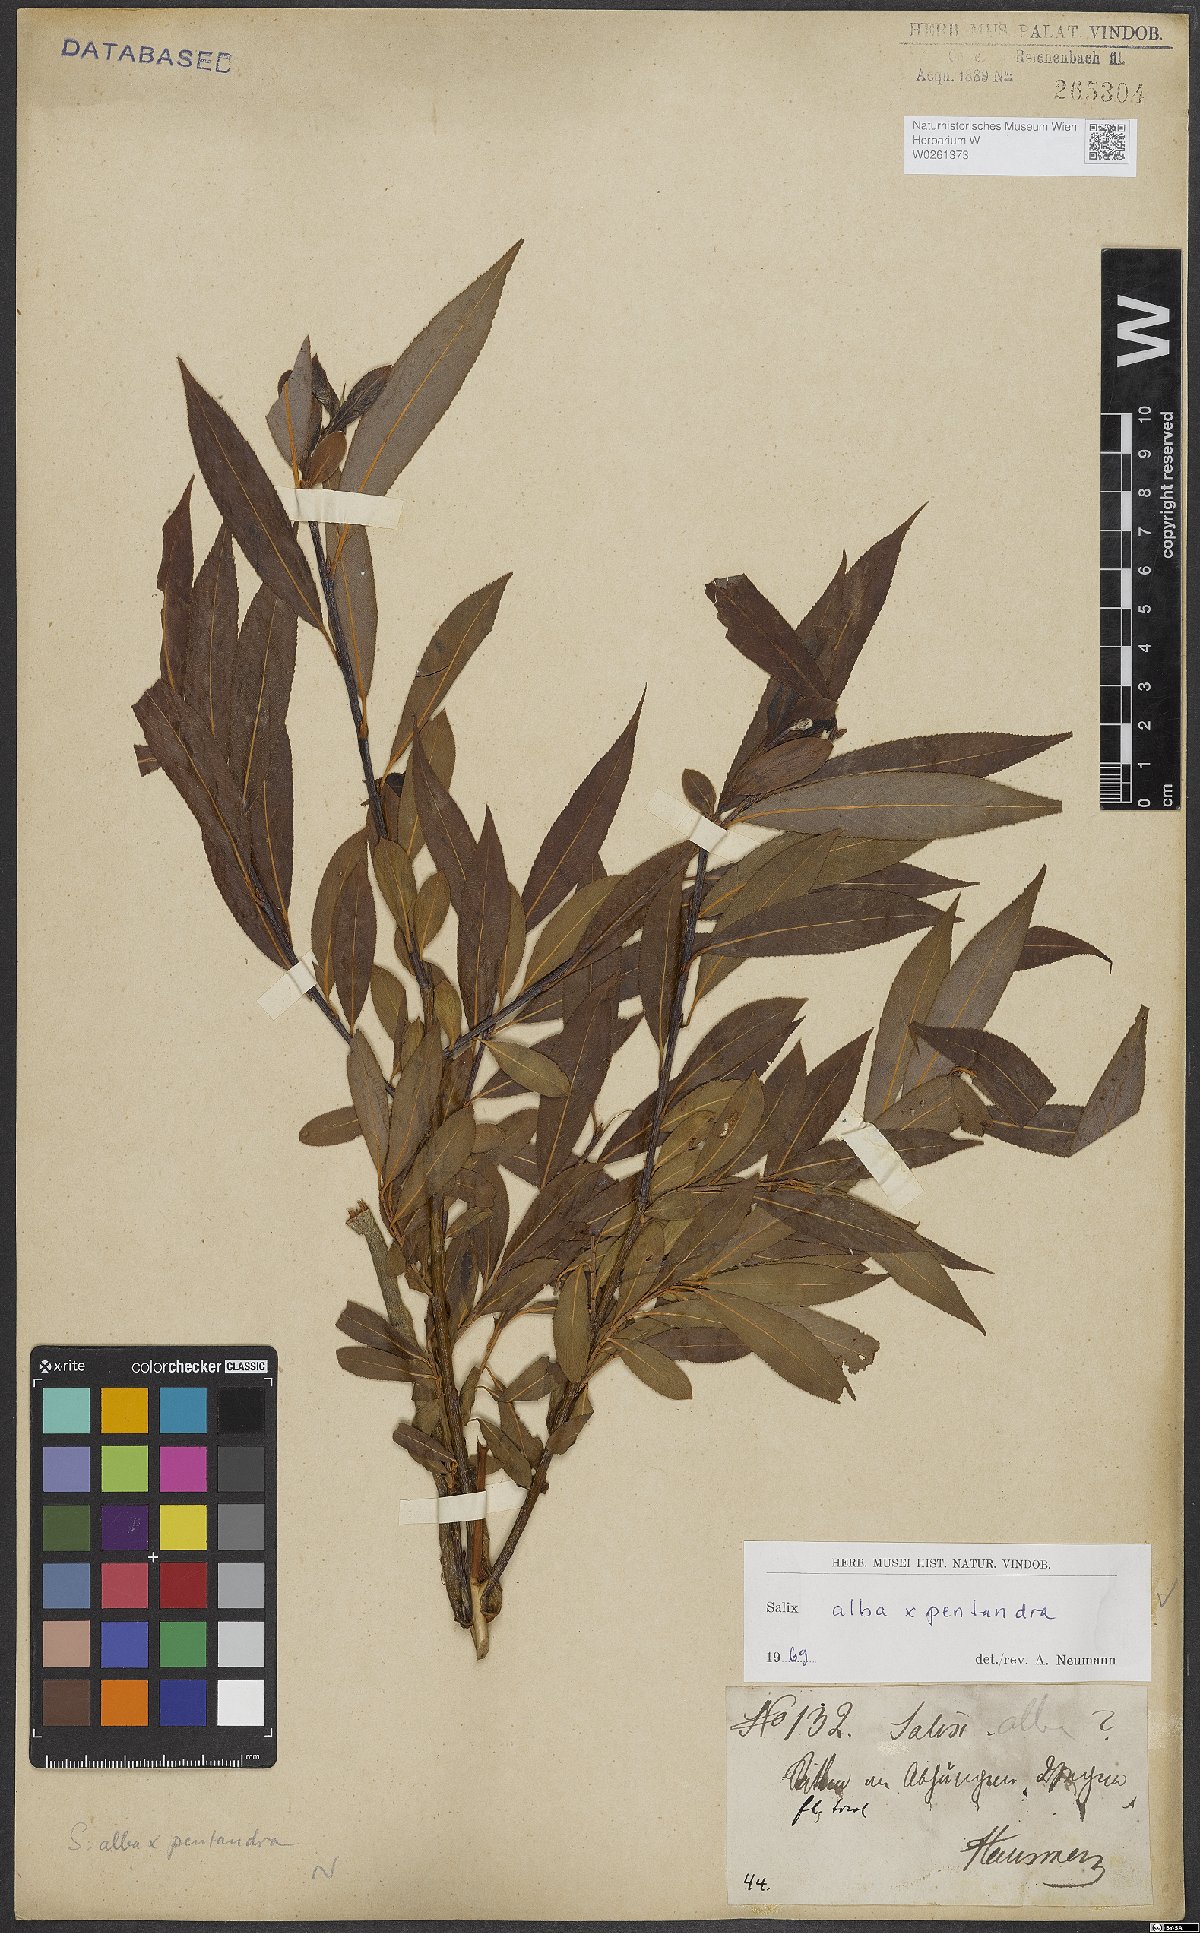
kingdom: Plantae
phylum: Tracheophyta
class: Magnoliopsida
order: Malpighiales
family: Salicaceae
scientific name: Salicaceae
